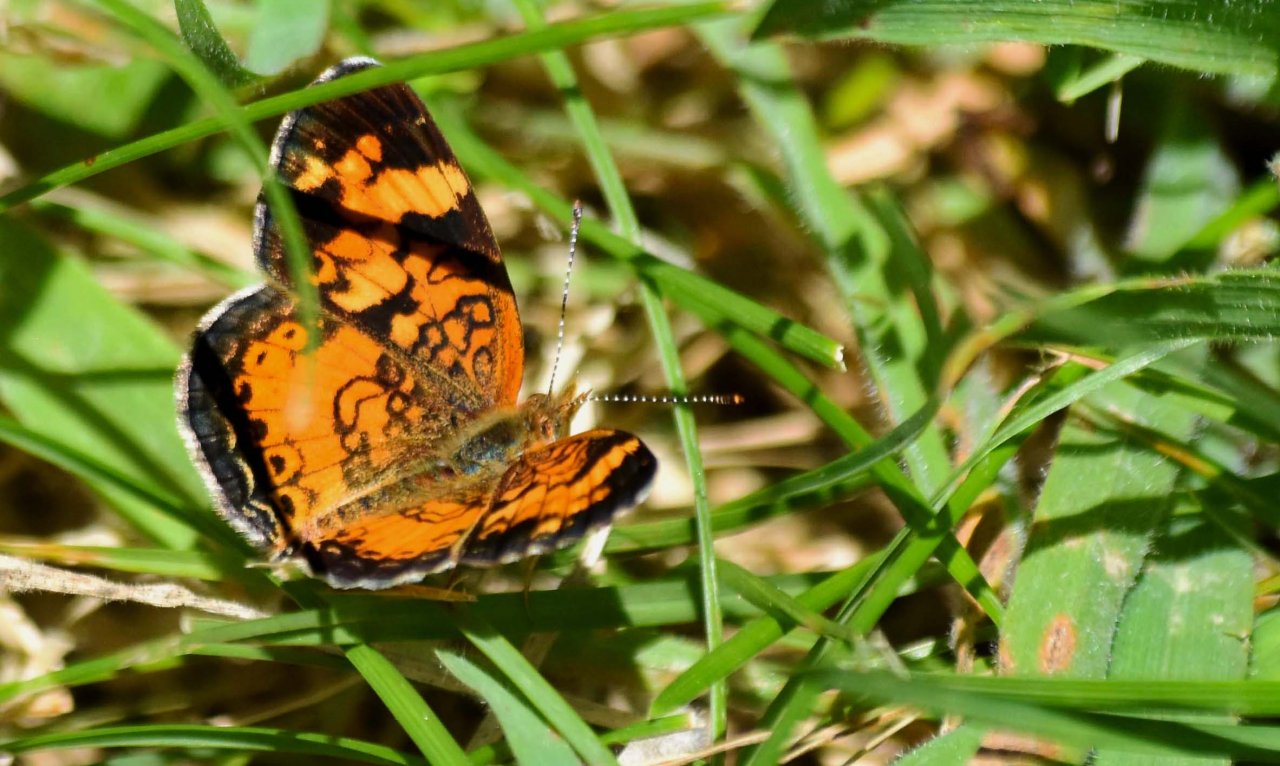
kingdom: Animalia
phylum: Arthropoda
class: Insecta
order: Lepidoptera
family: Nymphalidae
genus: Phyciodes
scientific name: Phyciodes tharos
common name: Pearl Crescent
